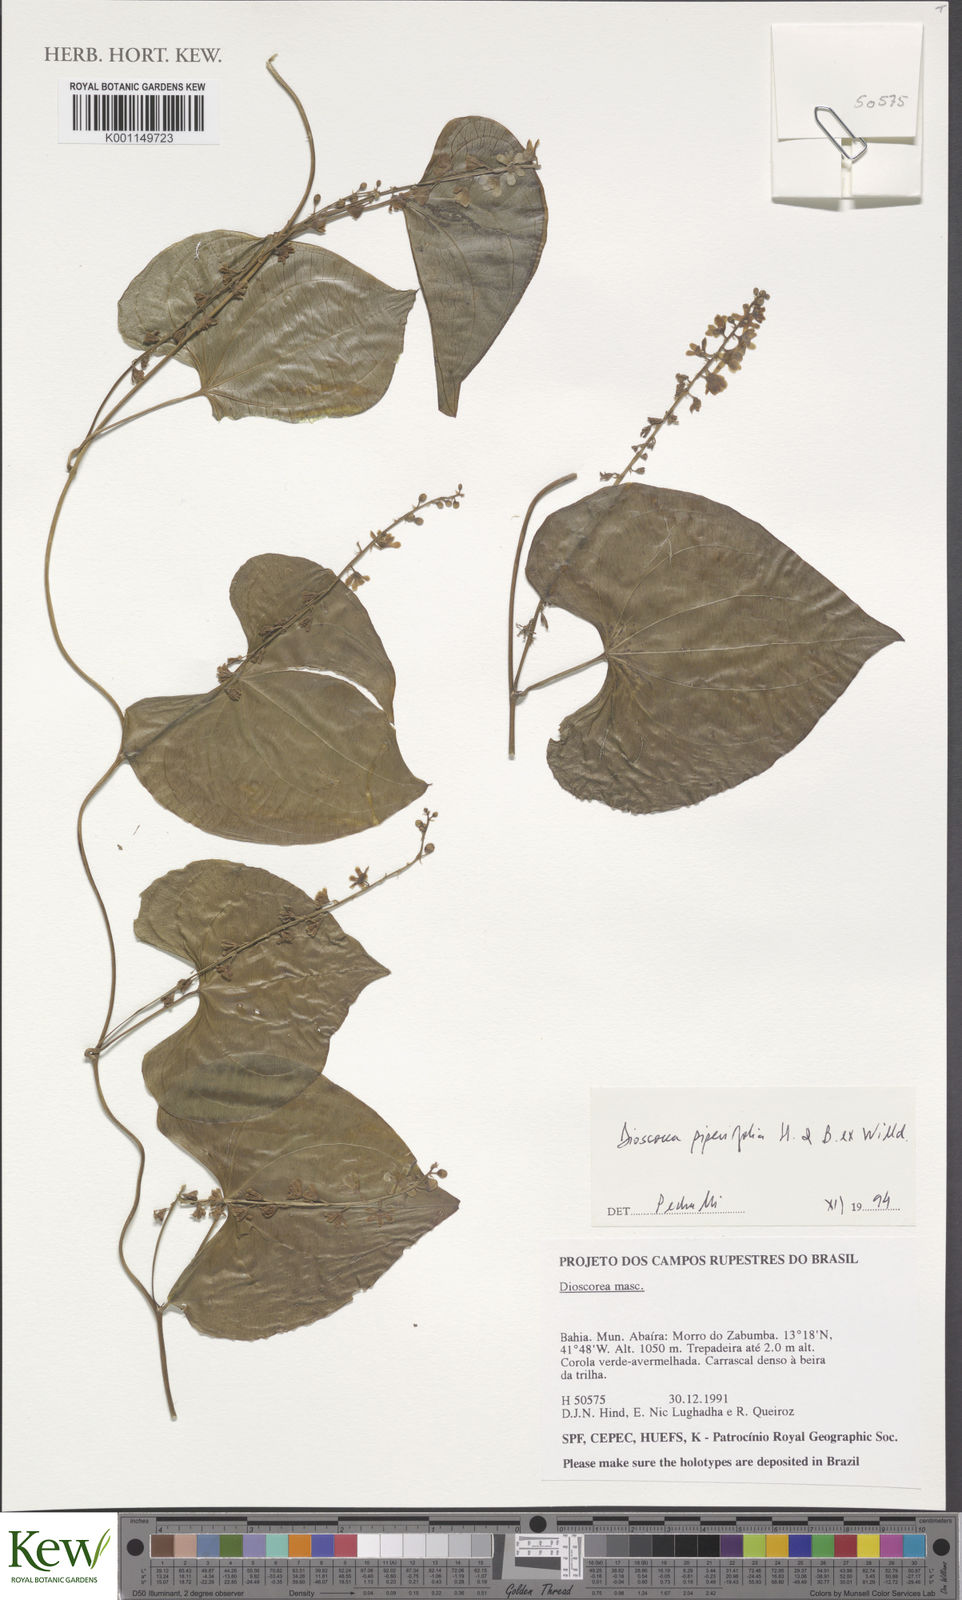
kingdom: Plantae
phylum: Tracheophyta
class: Liliopsida
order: Dioscoreales
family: Dioscoreaceae
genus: Dioscorea
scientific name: Dioscorea grandiflora
